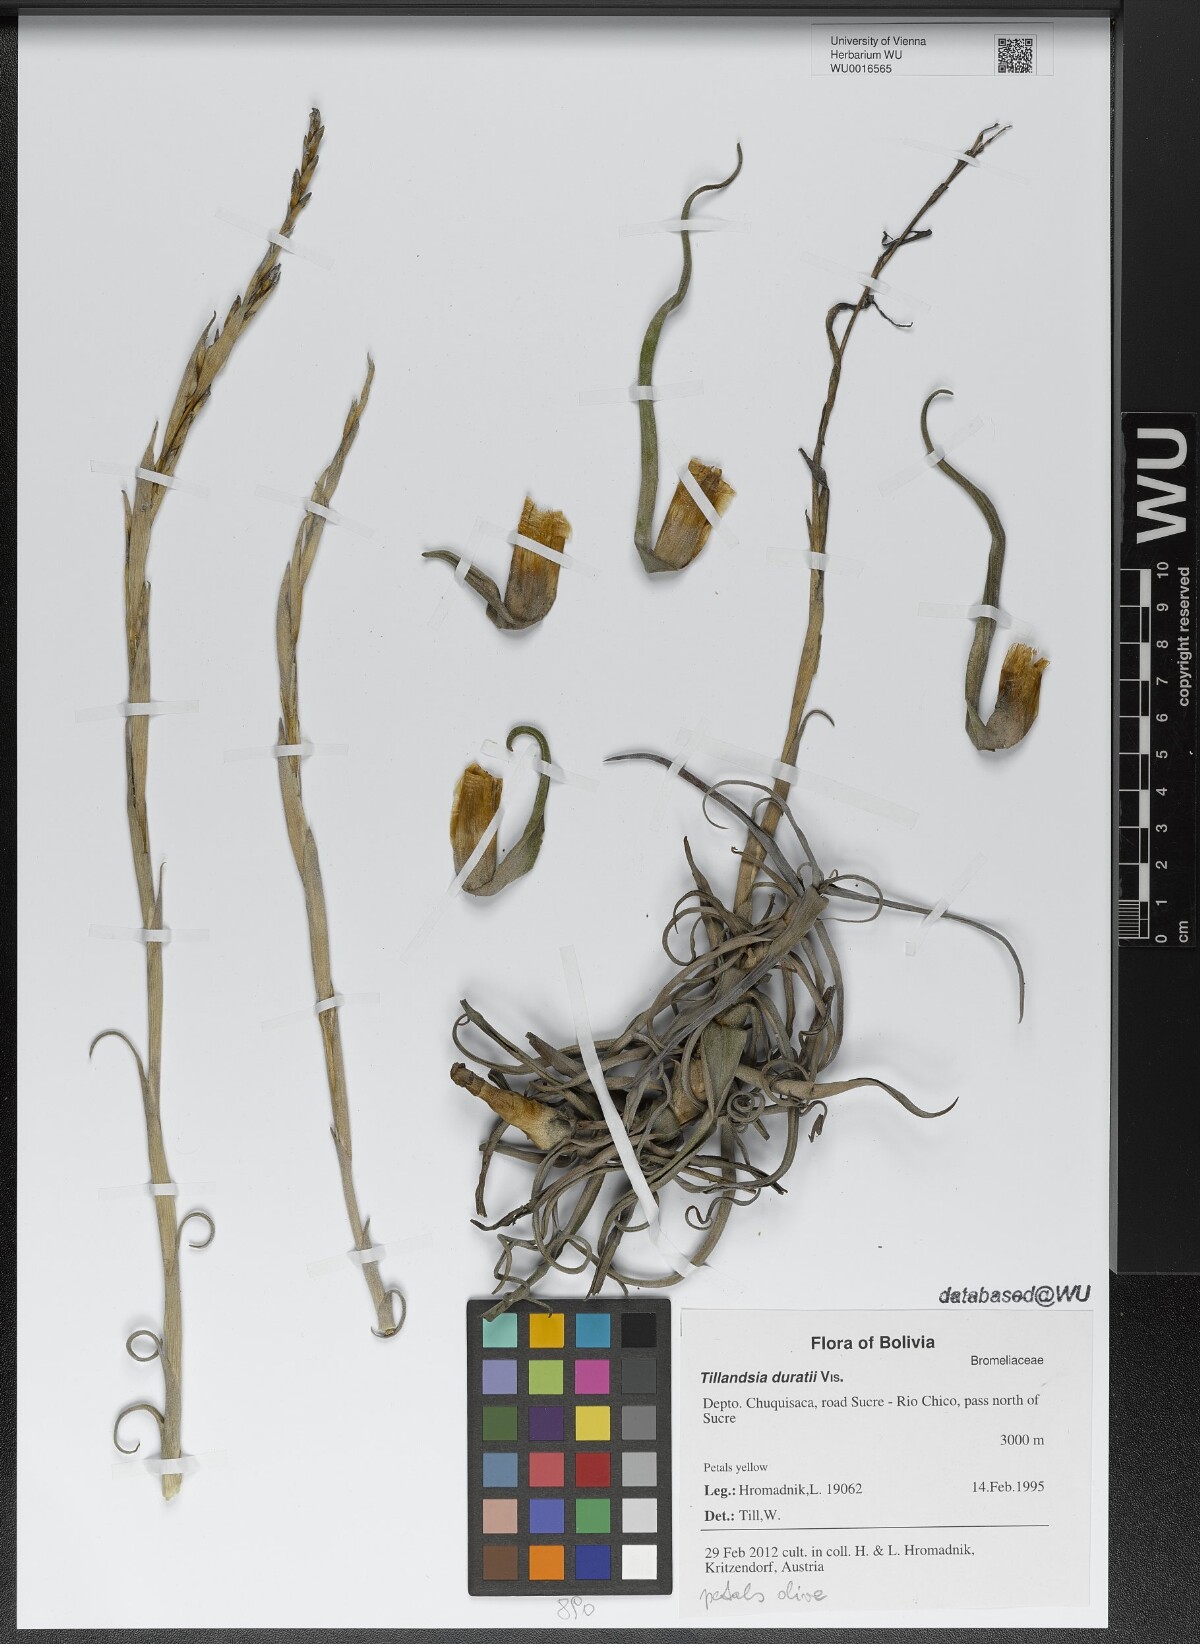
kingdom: Plantae
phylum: Tracheophyta
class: Liliopsida
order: Poales
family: Bromeliaceae
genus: Tillandsia
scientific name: Tillandsia duratii
